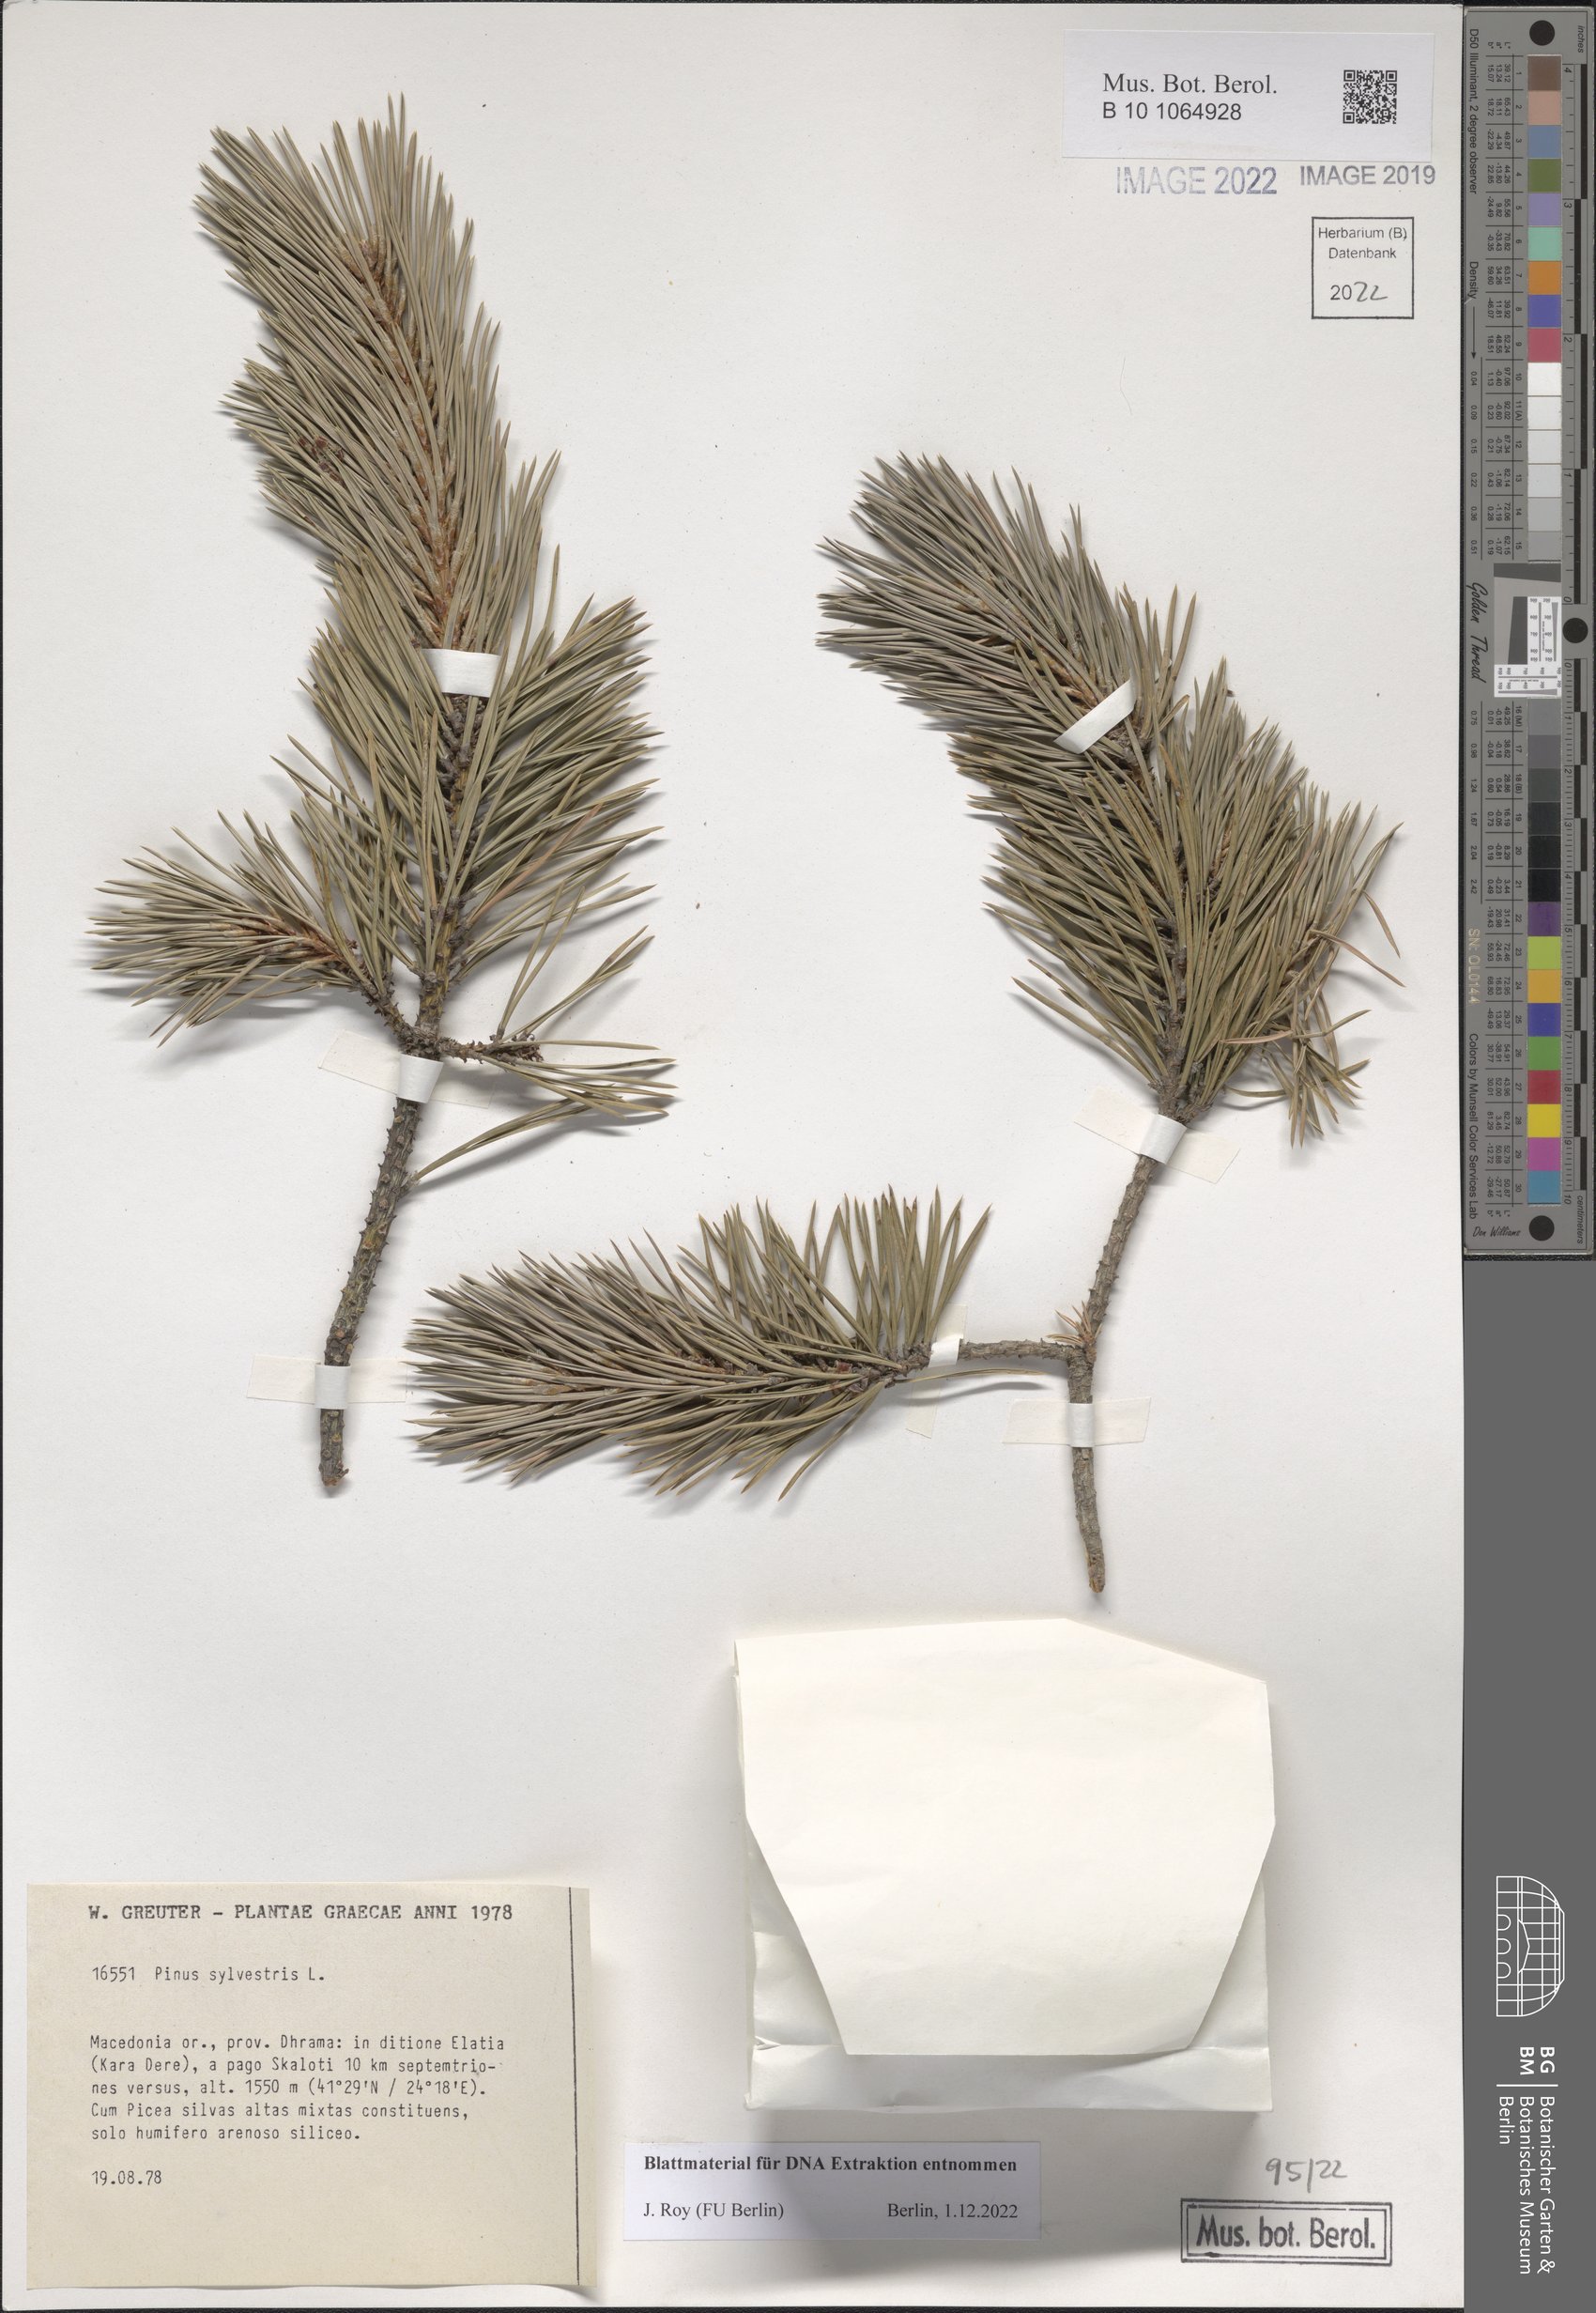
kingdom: Plantae
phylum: Tracheophyta
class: Pinopsida
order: Pinales
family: Pinaceae
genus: Pinus
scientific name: Pinus sylvestris
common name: Scots pine
